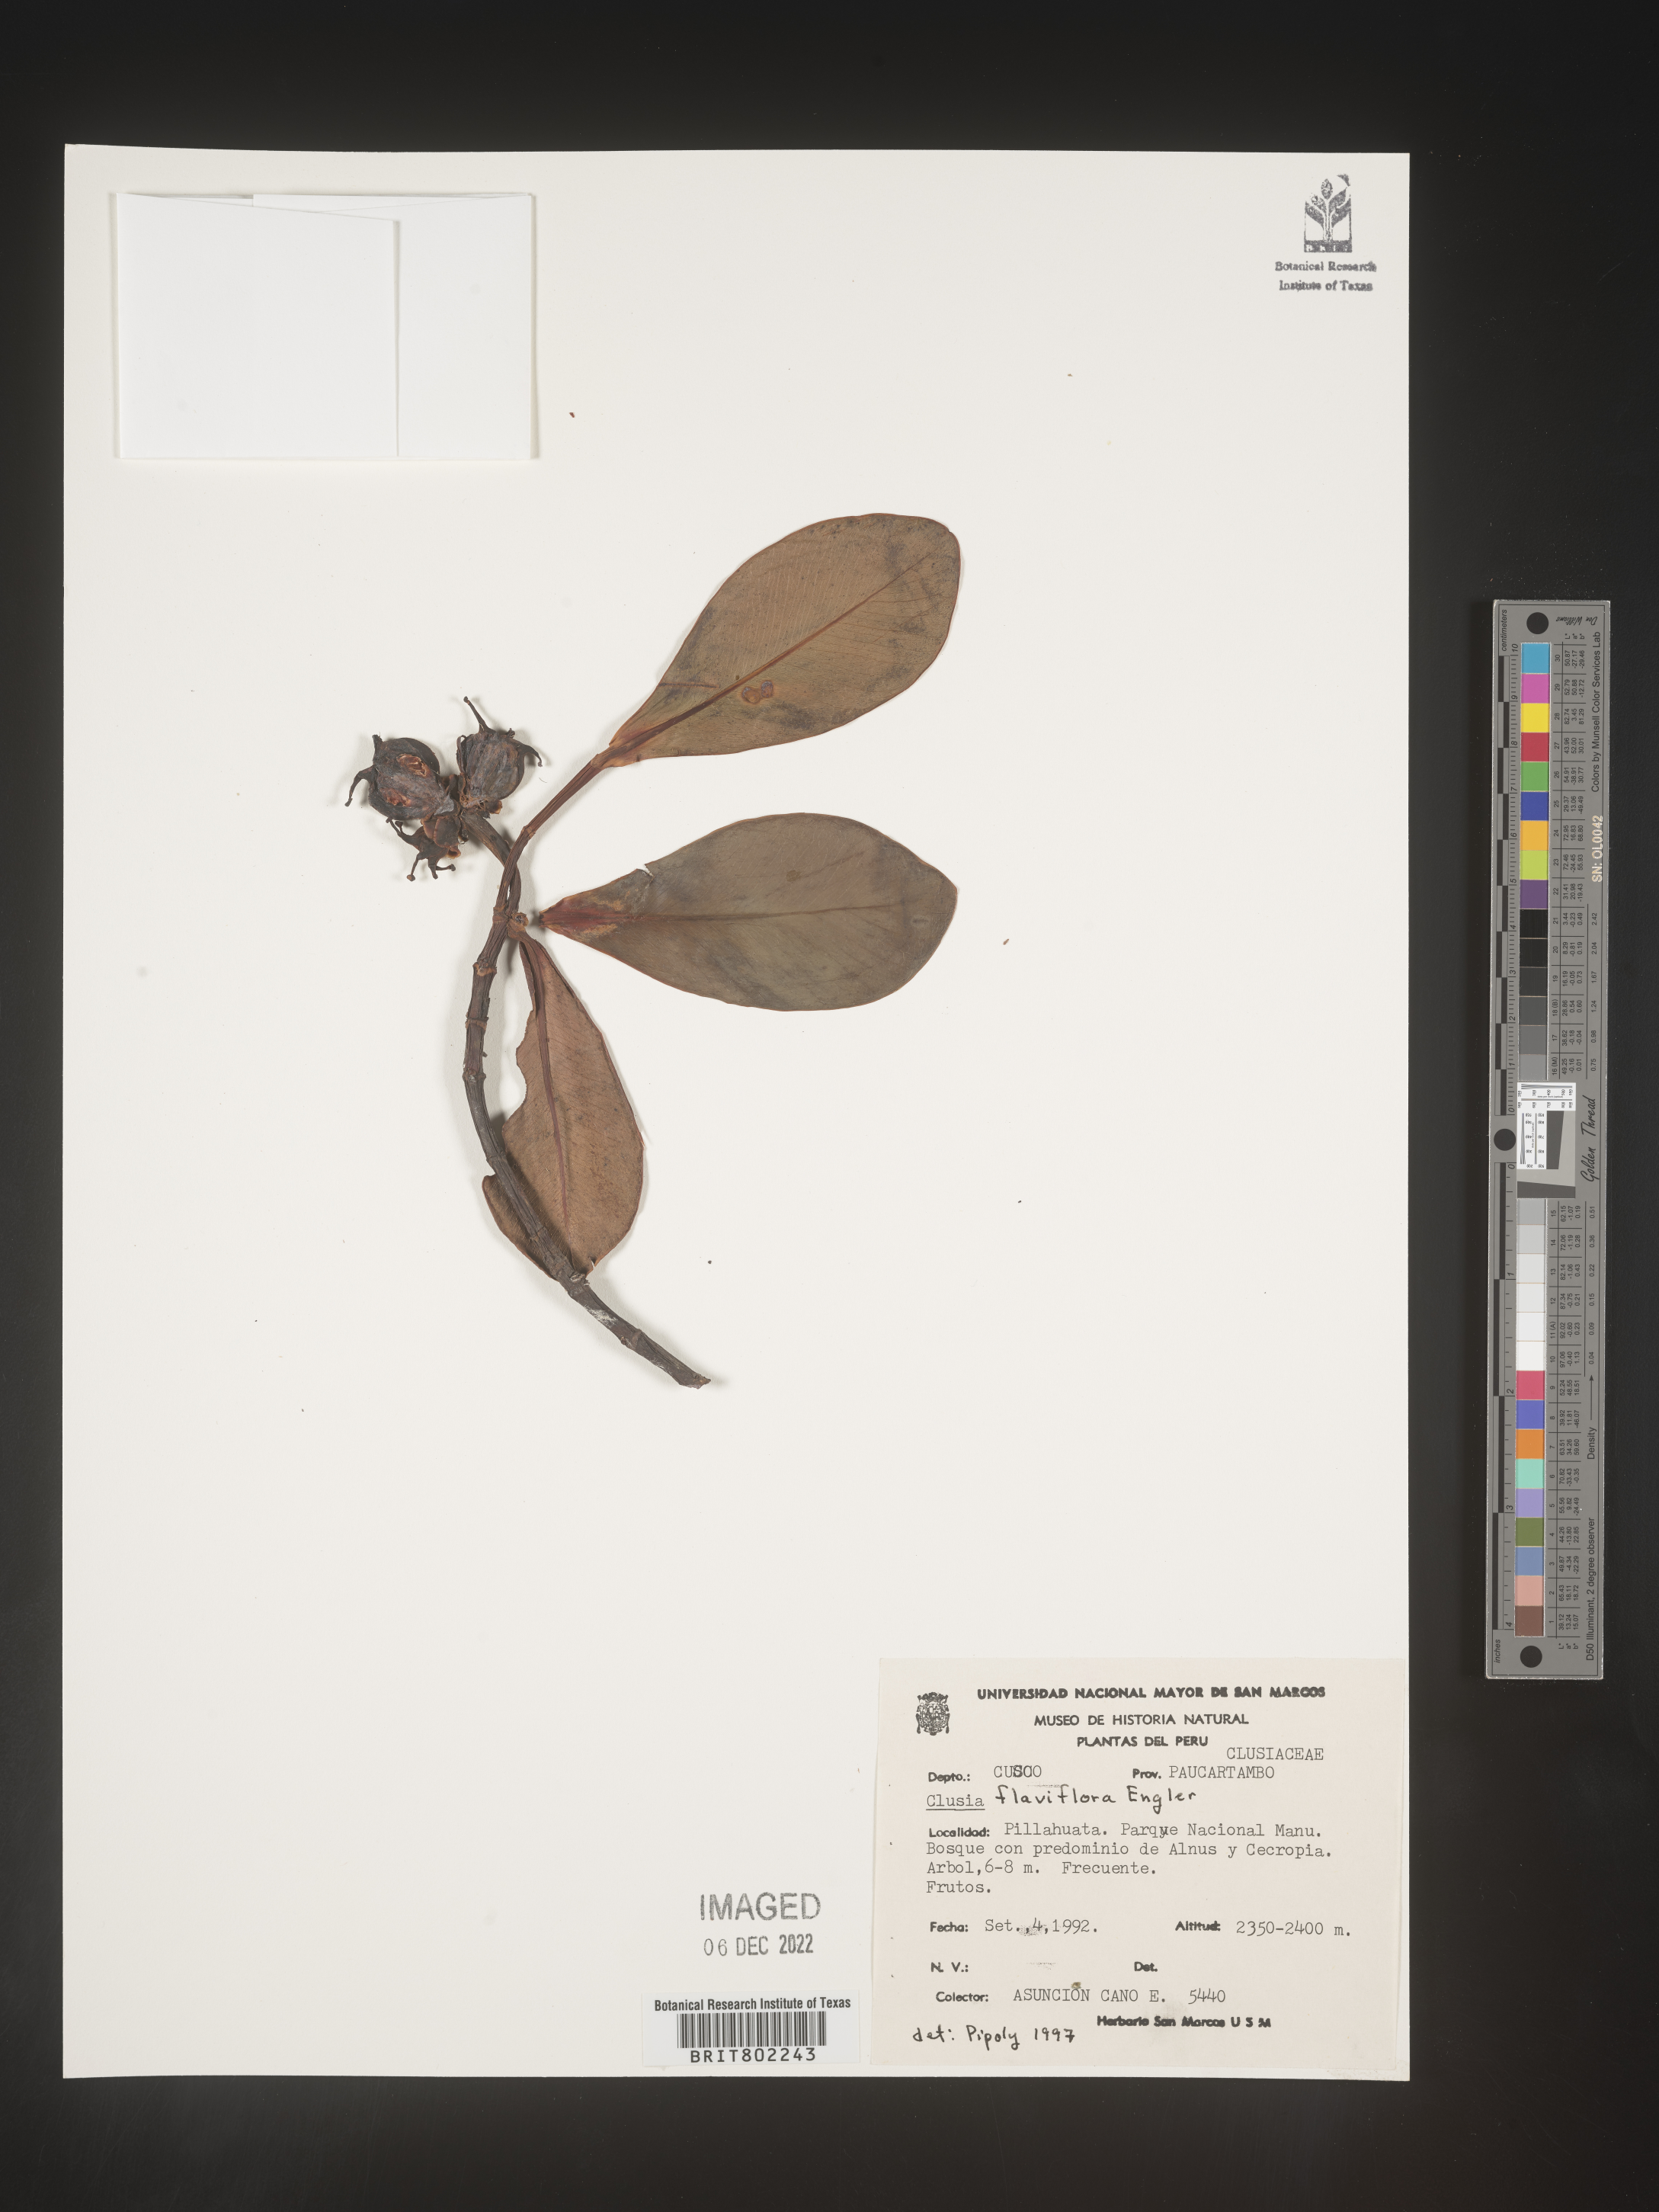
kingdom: Plantae
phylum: Tracheophyta
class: Magnoliopsida
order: Malpighiales
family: Clusiaceae
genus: Clusia
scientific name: Clusia sphaerocarpa
